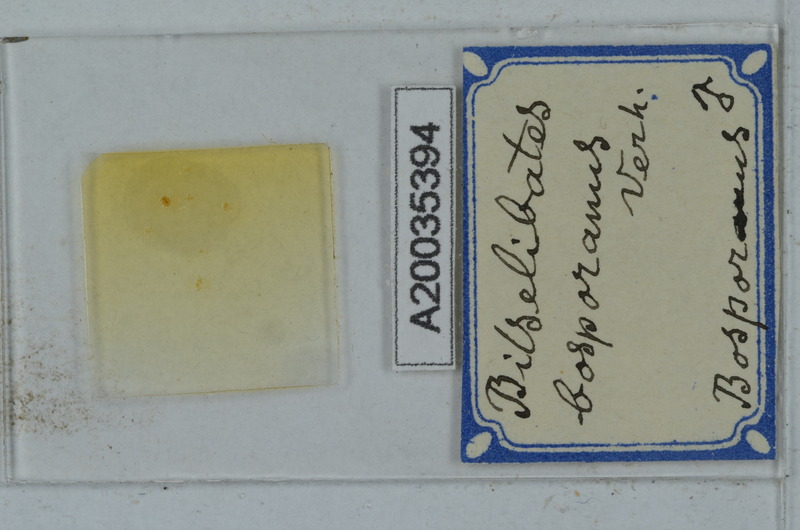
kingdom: Animalia
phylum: Arthropoda
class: Diplopoda
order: Julida
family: Blaniulidae
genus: Cibiniulus
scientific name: Cibiniulus phlepsii
